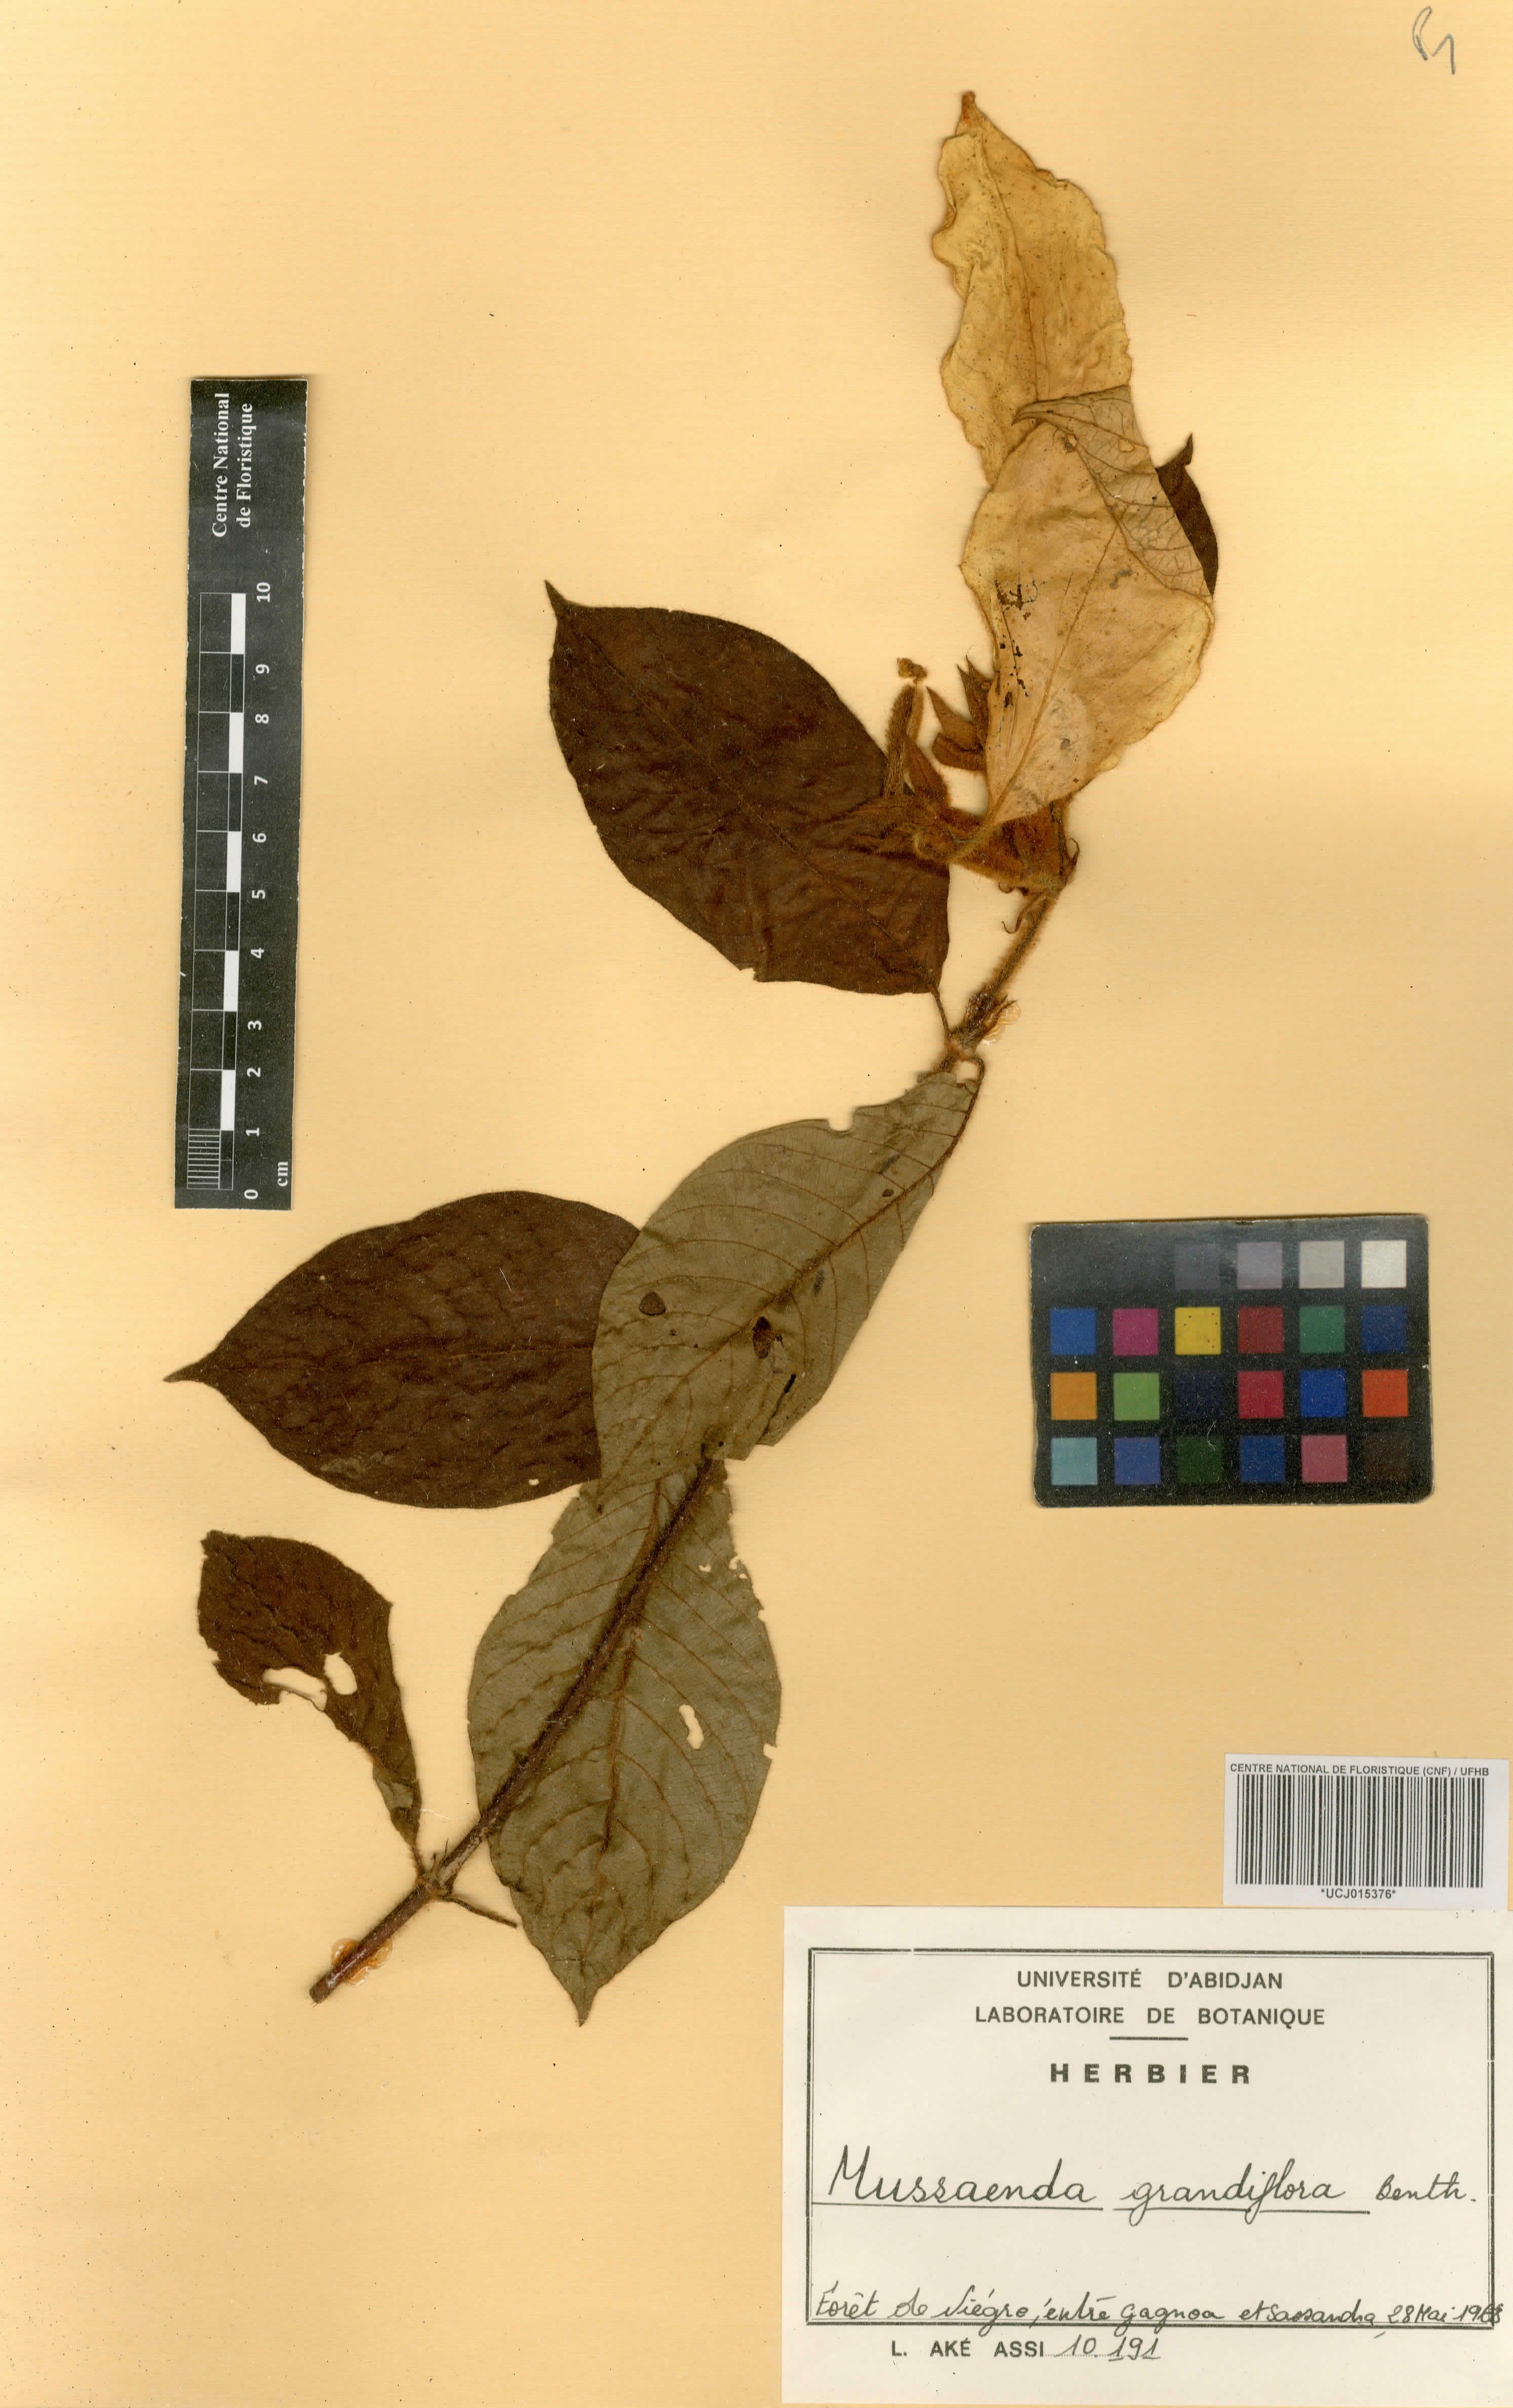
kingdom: Plantae
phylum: Tracheophyta
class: Magnoliopsida
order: Gentianales
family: Rubiaceae
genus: Mussaenda
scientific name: Mussaenda grandiflora
